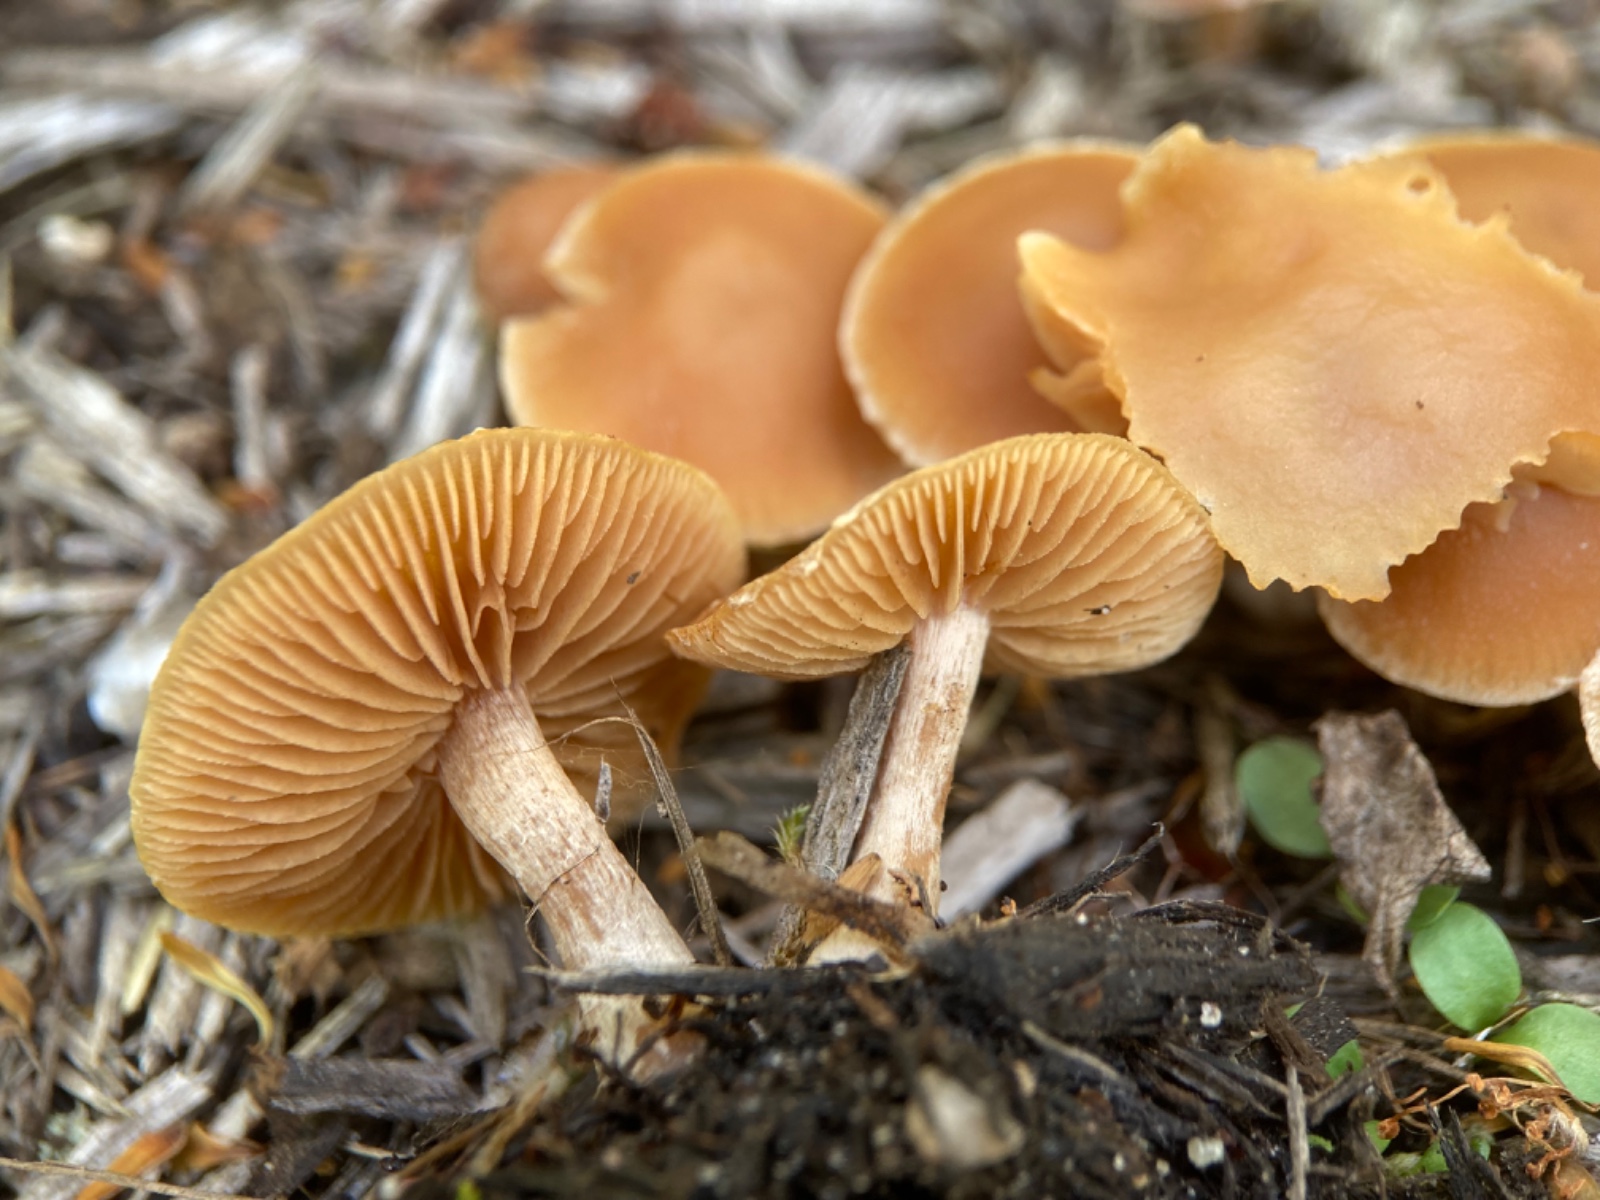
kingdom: Fungi
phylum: Basidiomycota
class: Agaricomycetes
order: Agaricales
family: Tubariaceae
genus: Tubaria
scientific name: Tubaria furfuracea
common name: kliddet fnughat
